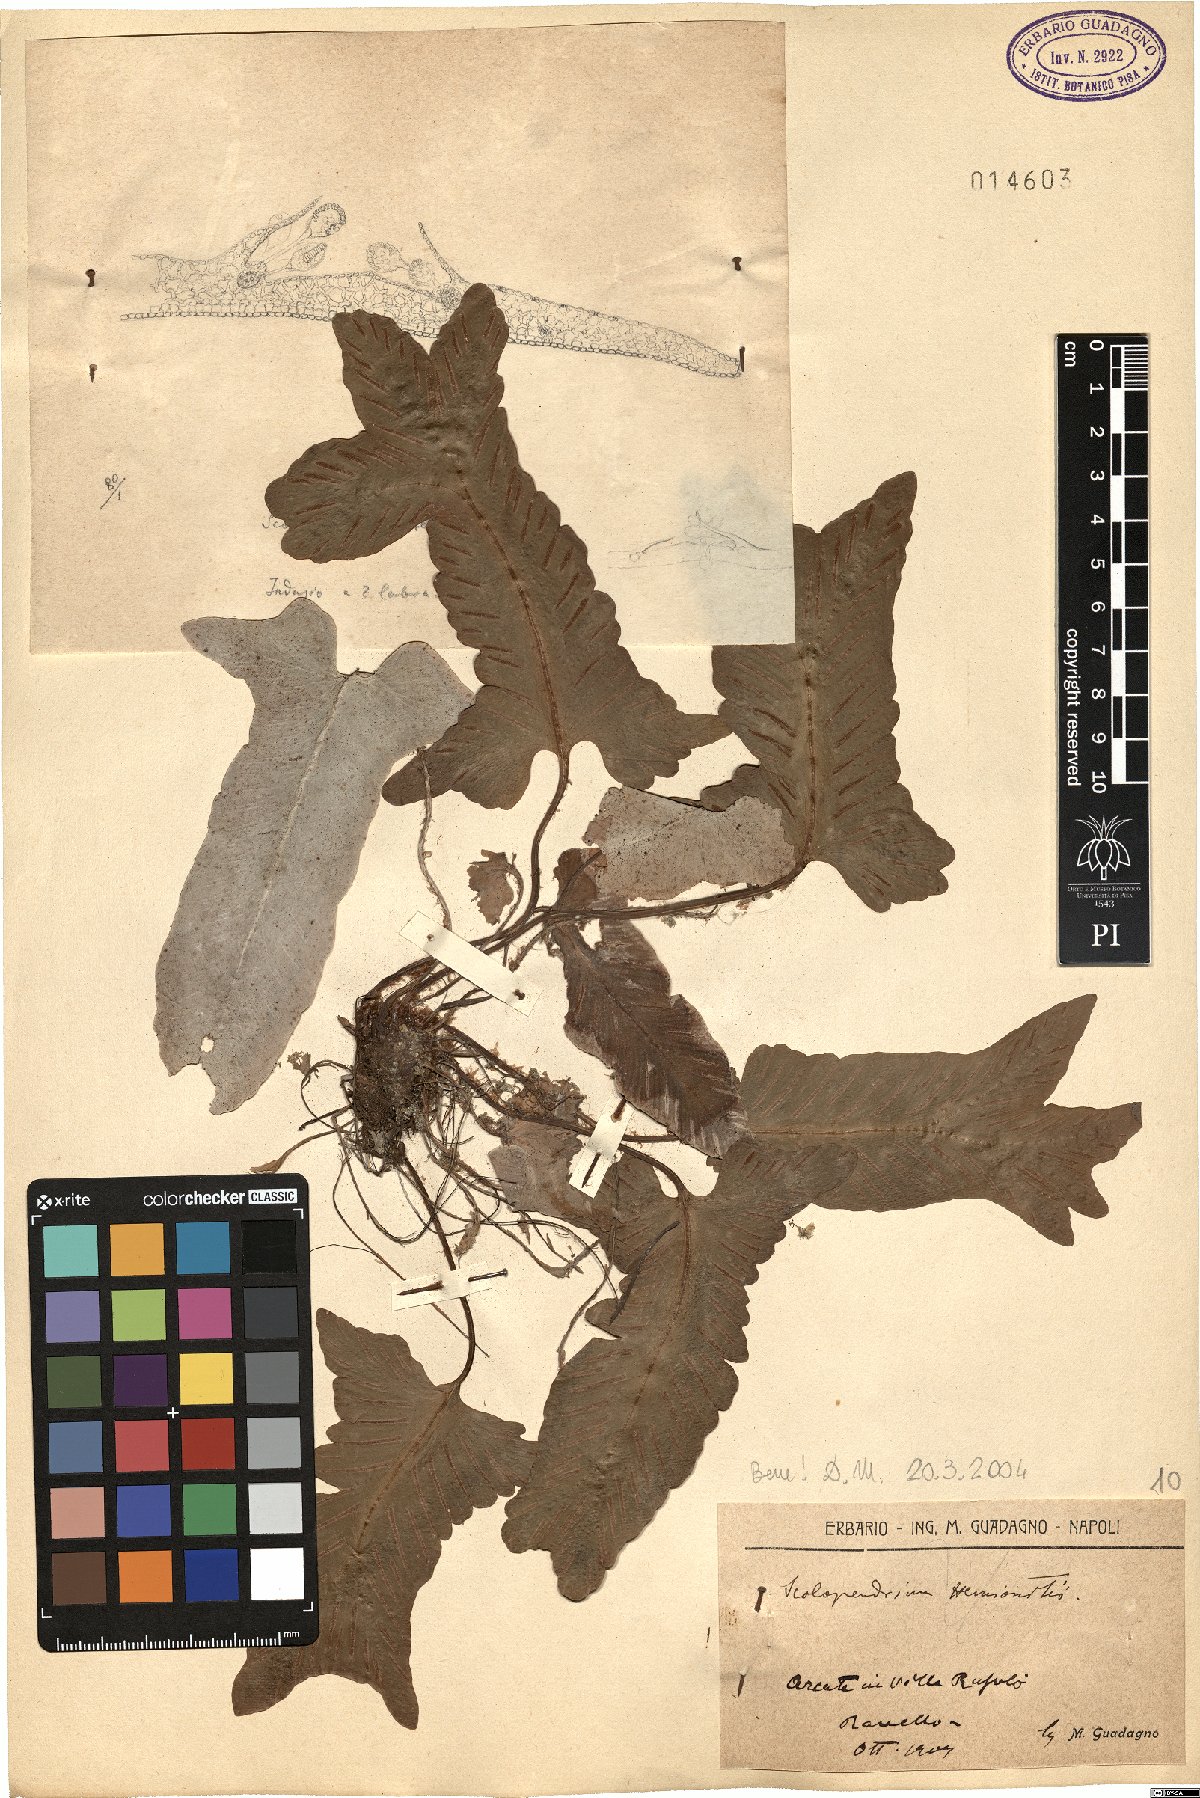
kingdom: Plantae
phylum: Tracheophyta
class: Polypodiopsida
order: Polypodiales
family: Aspleniaceae
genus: Asplenium
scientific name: Asplenium sagittatum
